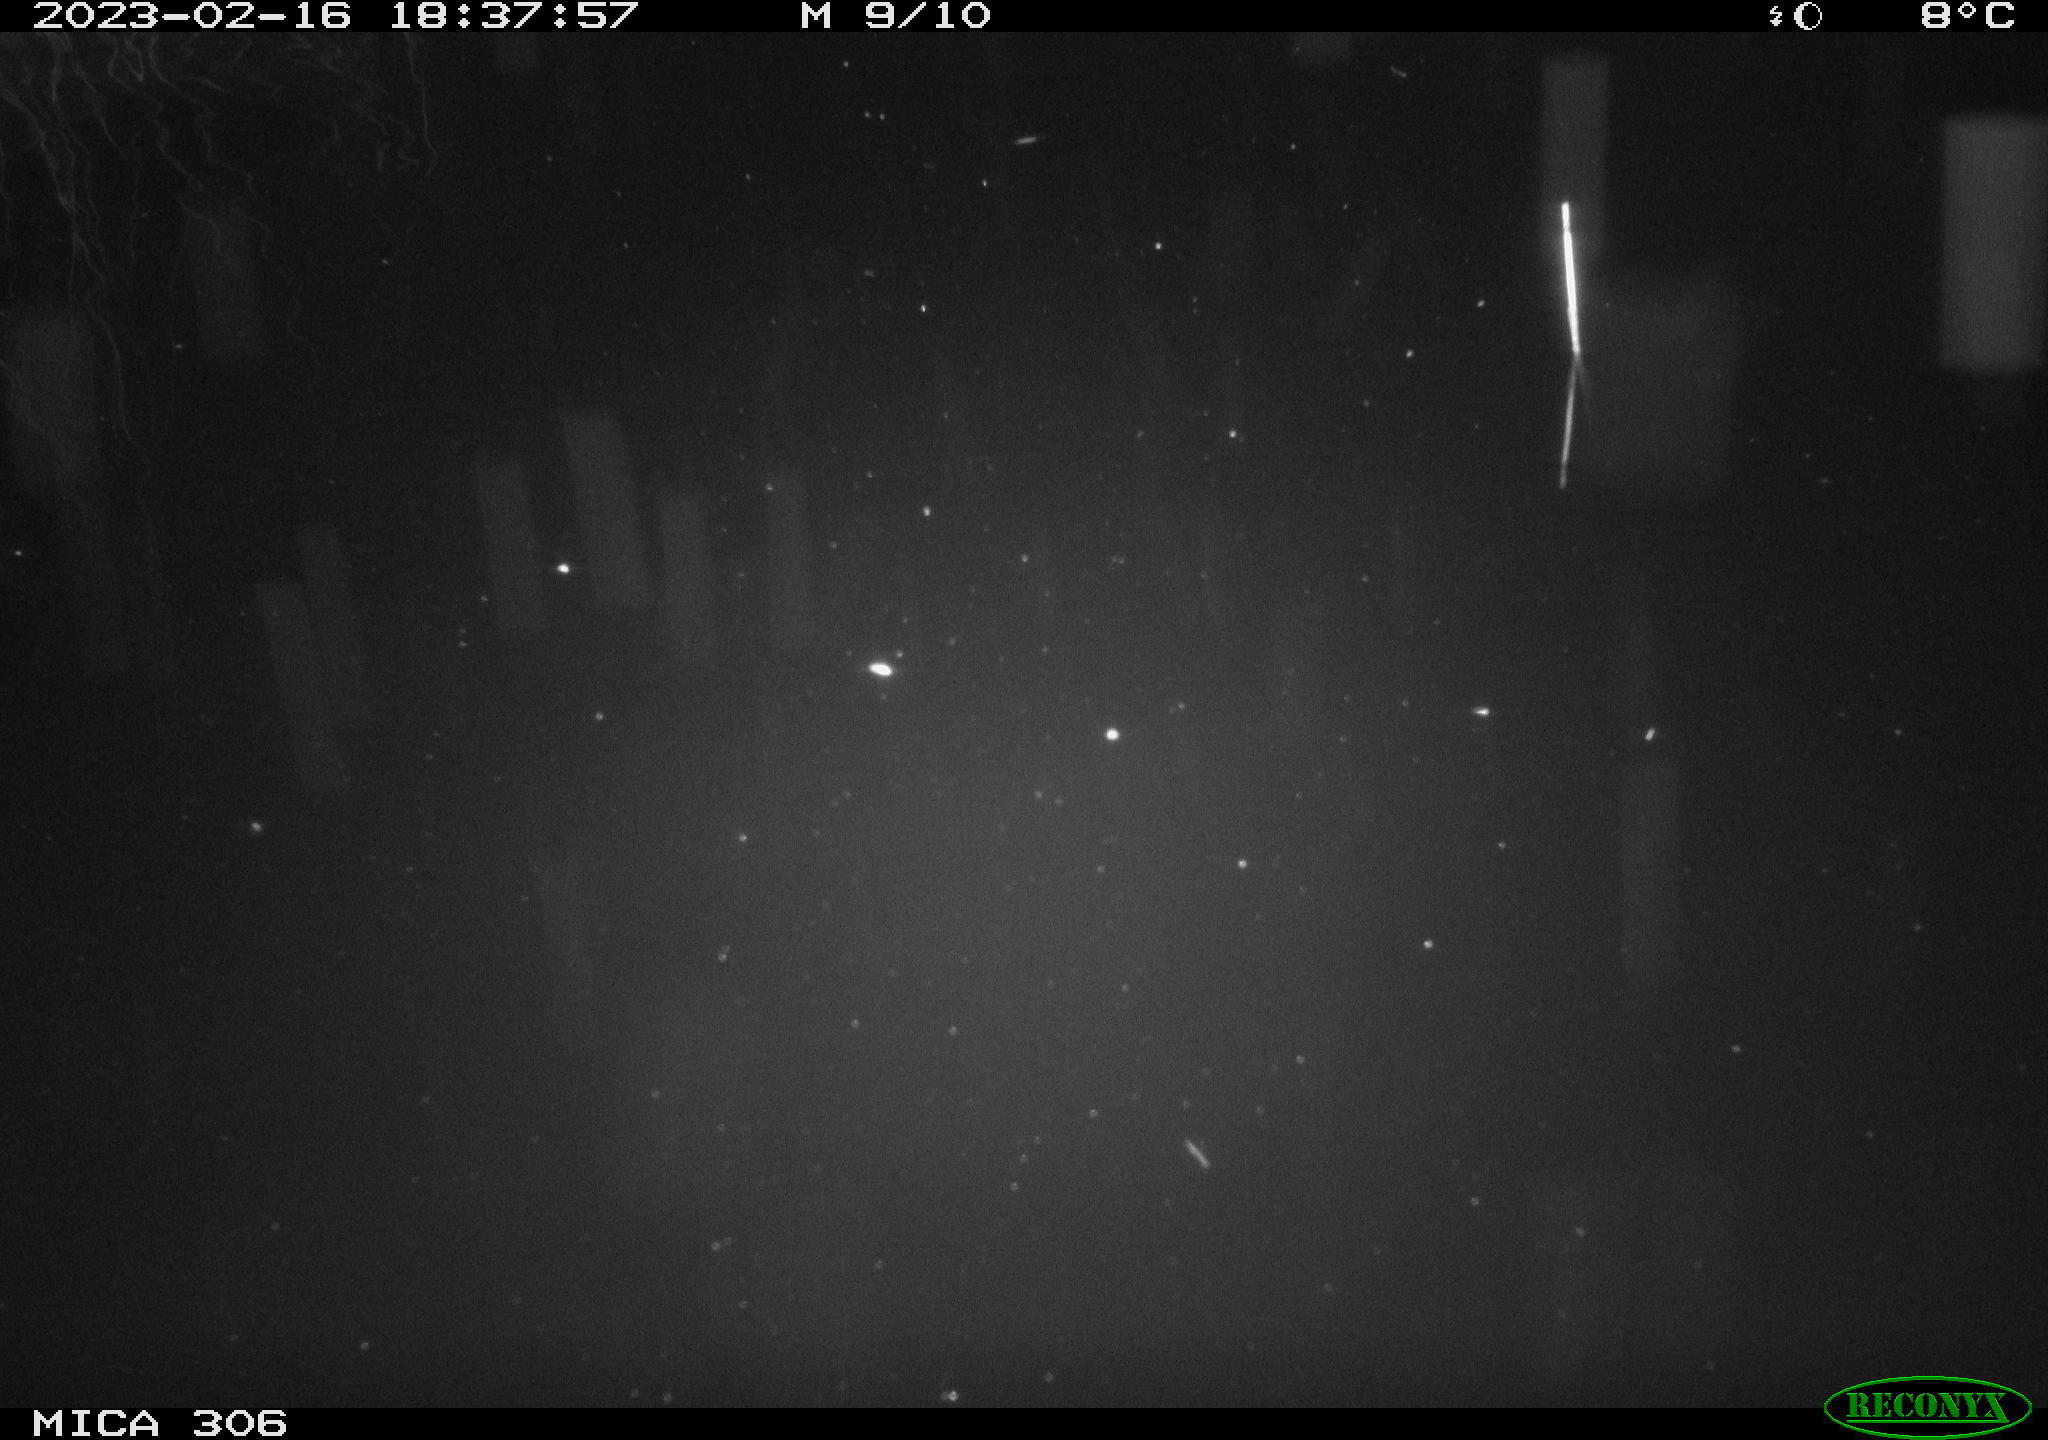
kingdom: Animalia
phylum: Chordata
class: Mammalia
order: Rodentia
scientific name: Rodentia
